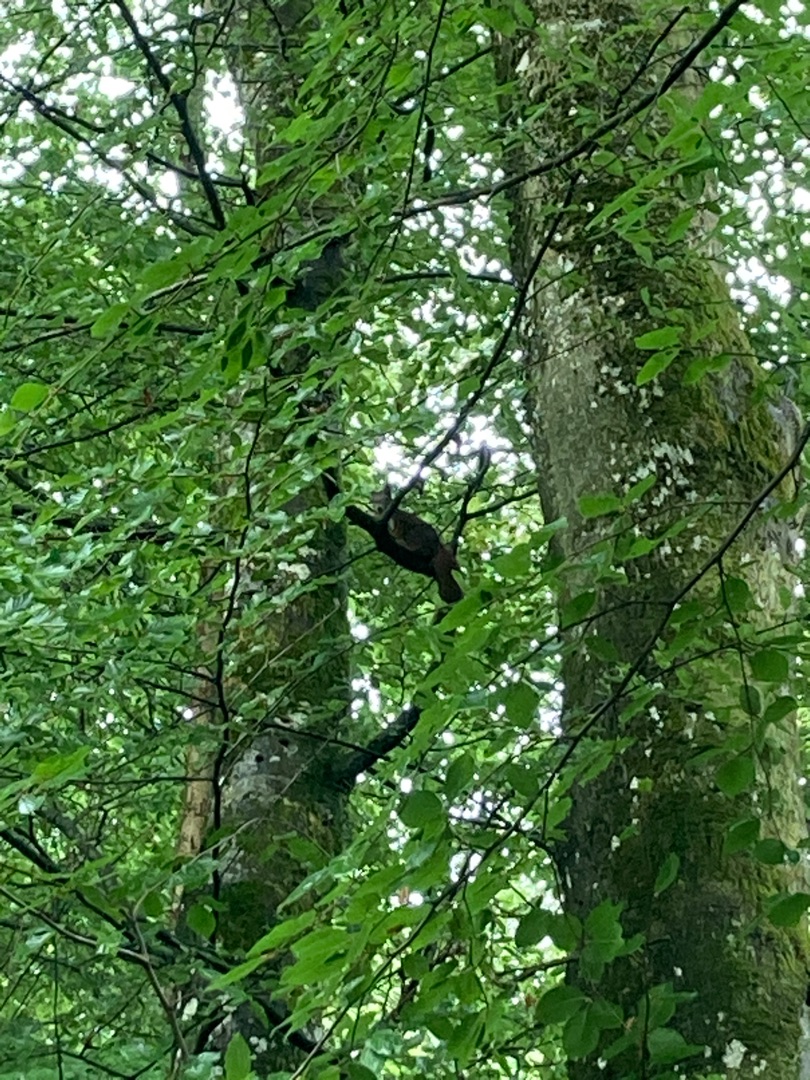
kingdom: Animalia
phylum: Chordata
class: Mammalia
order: Rodentia
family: Sciuridae
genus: Sciurus
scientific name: Sciurus vulgaris
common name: Egern
